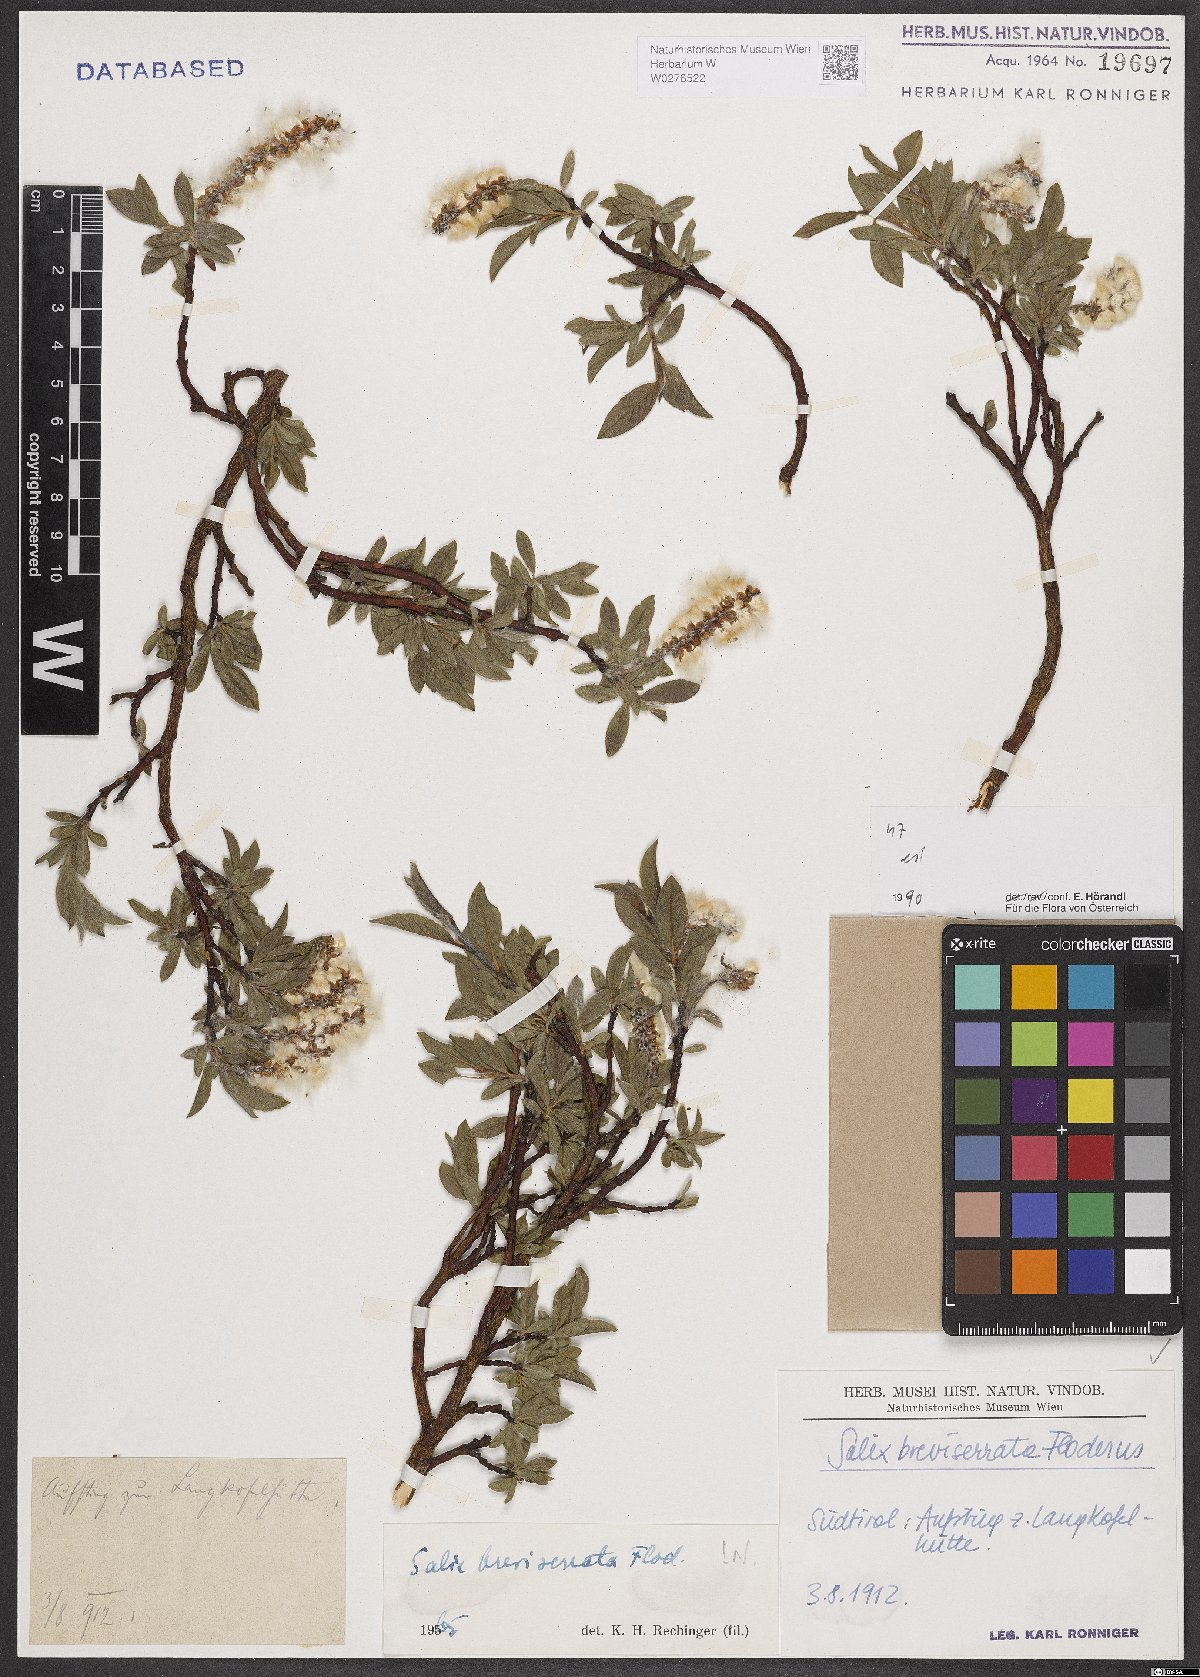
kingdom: Plantae
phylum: Tracheophyta
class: Magnoliopsida
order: Malpighiales
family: Salicaceae
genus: Salix
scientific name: Salix breviserrata
